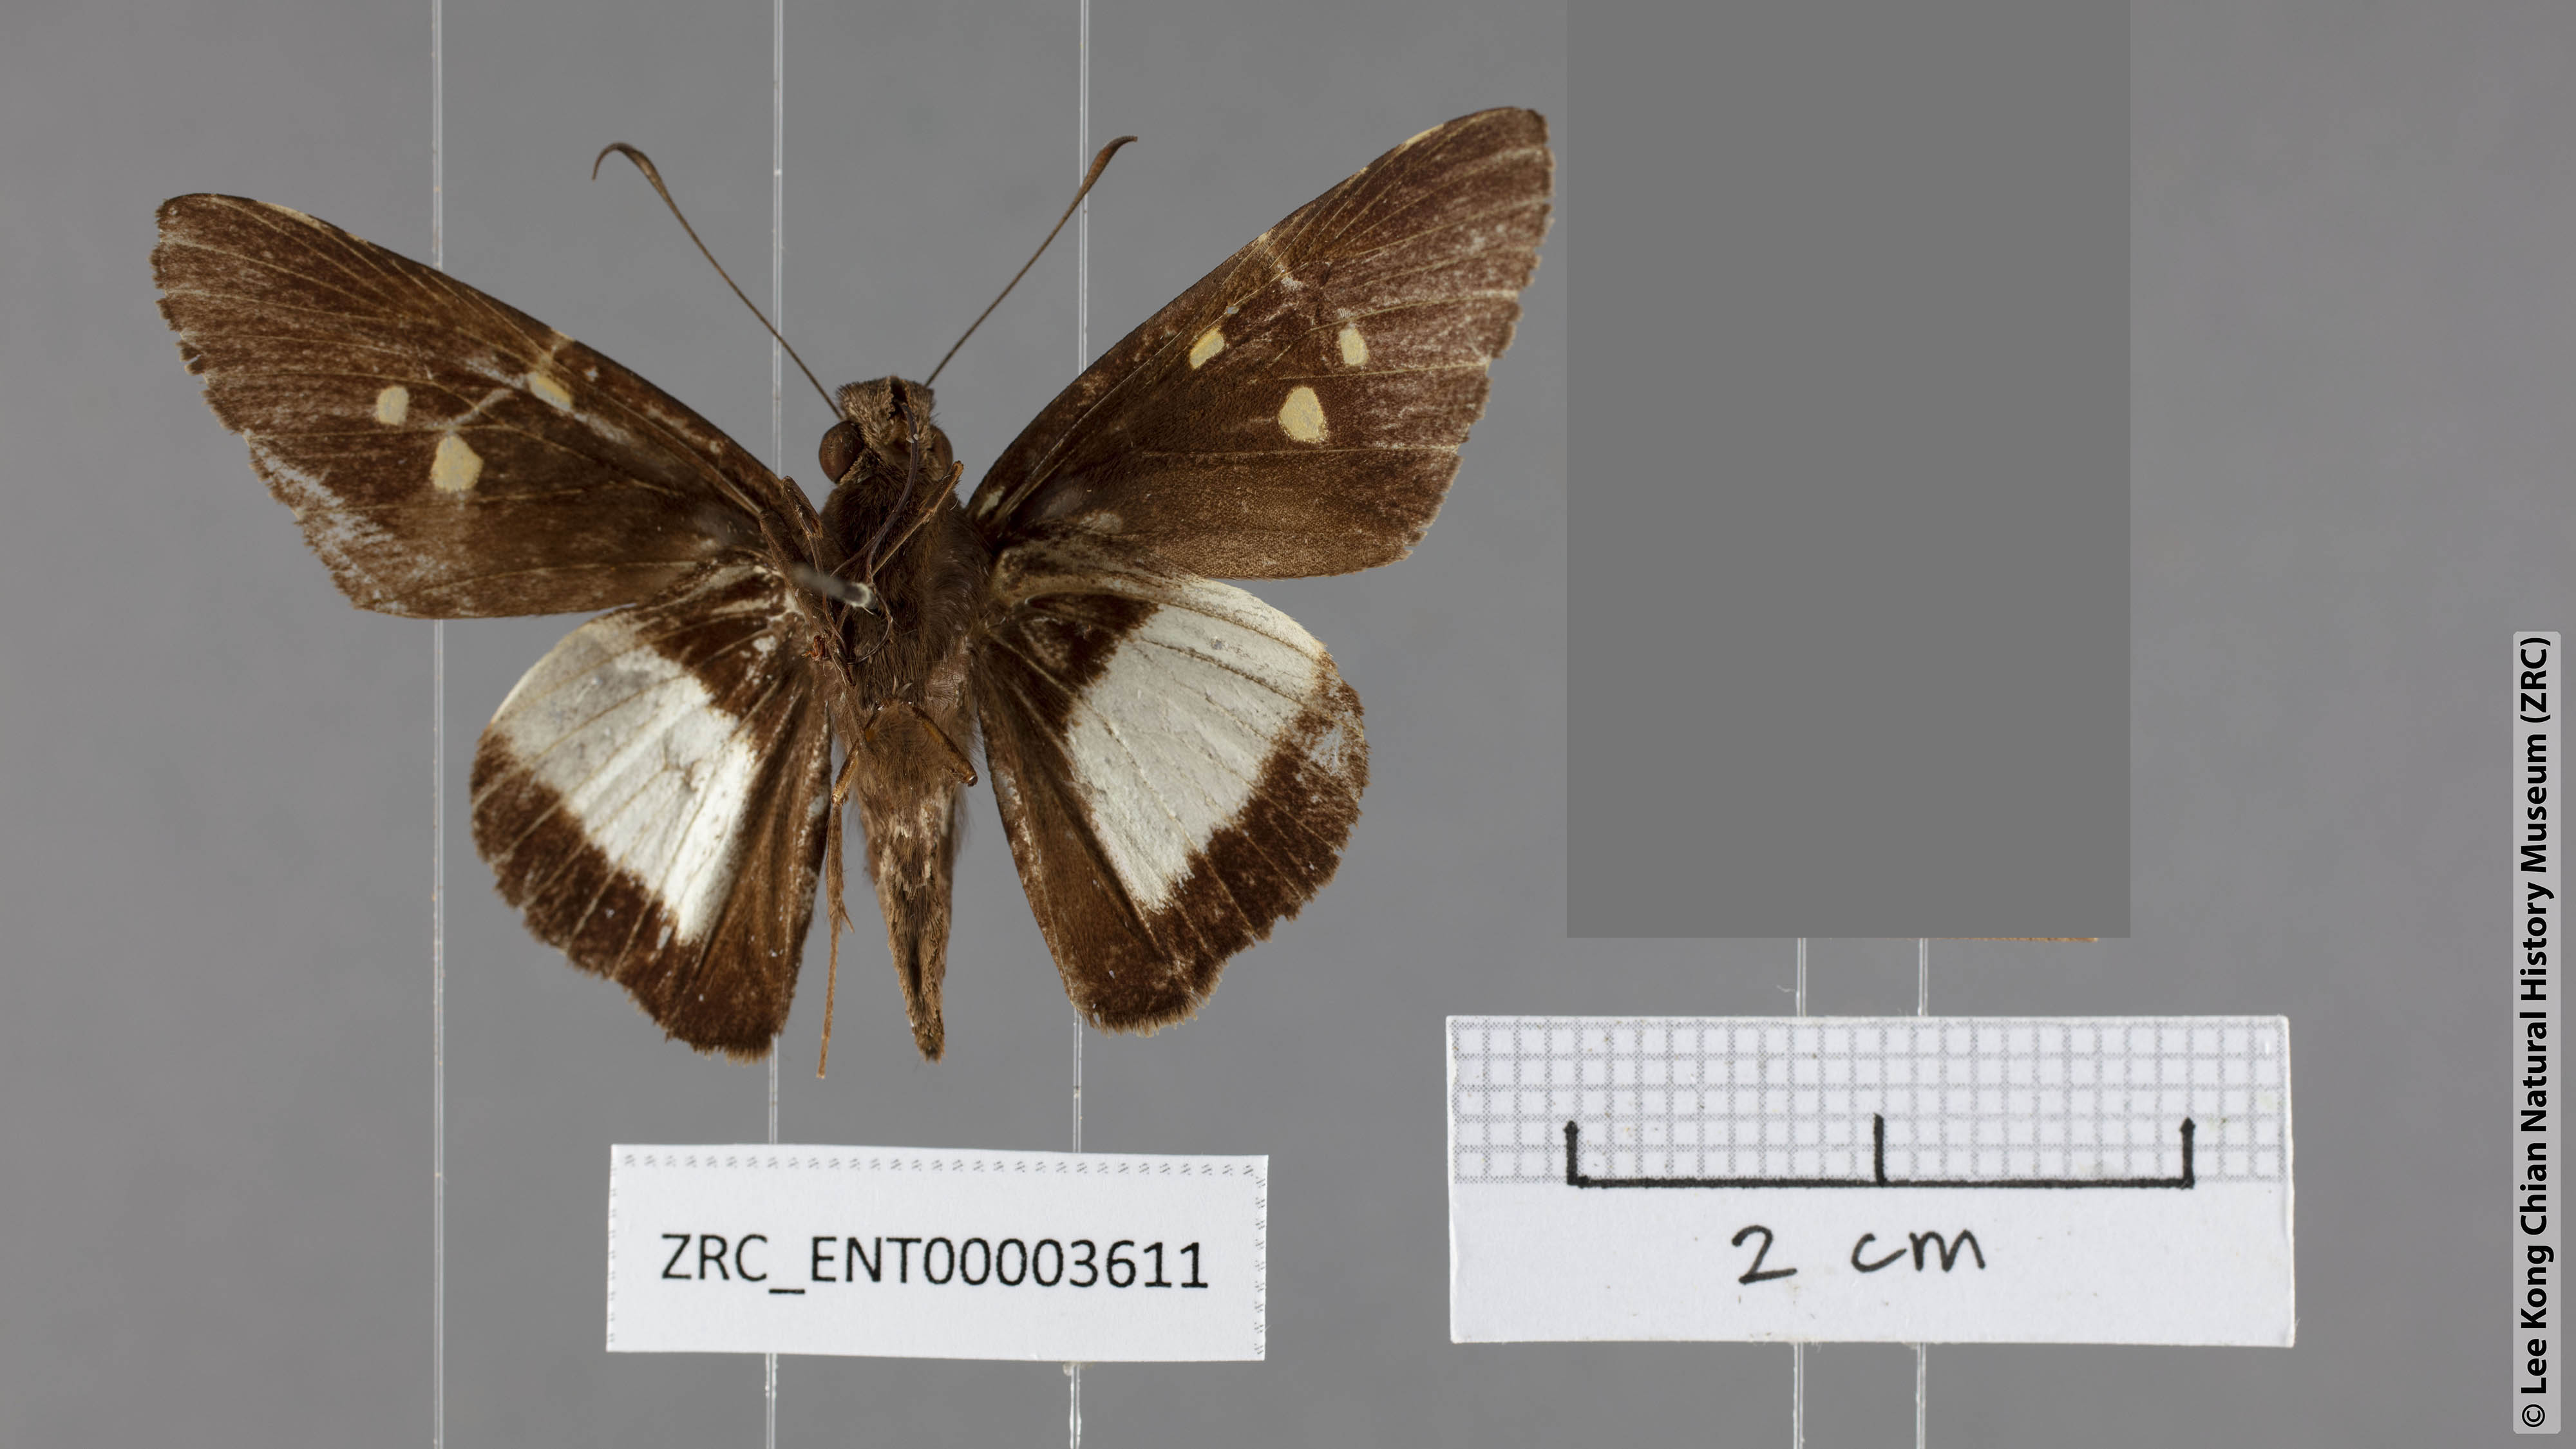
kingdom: Animalia
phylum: Arthropoda
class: Insecta
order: Lepidoptera
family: Hesperiidae
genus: Unkana
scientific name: Unkana mytheca
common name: Silver and yellow palmer
